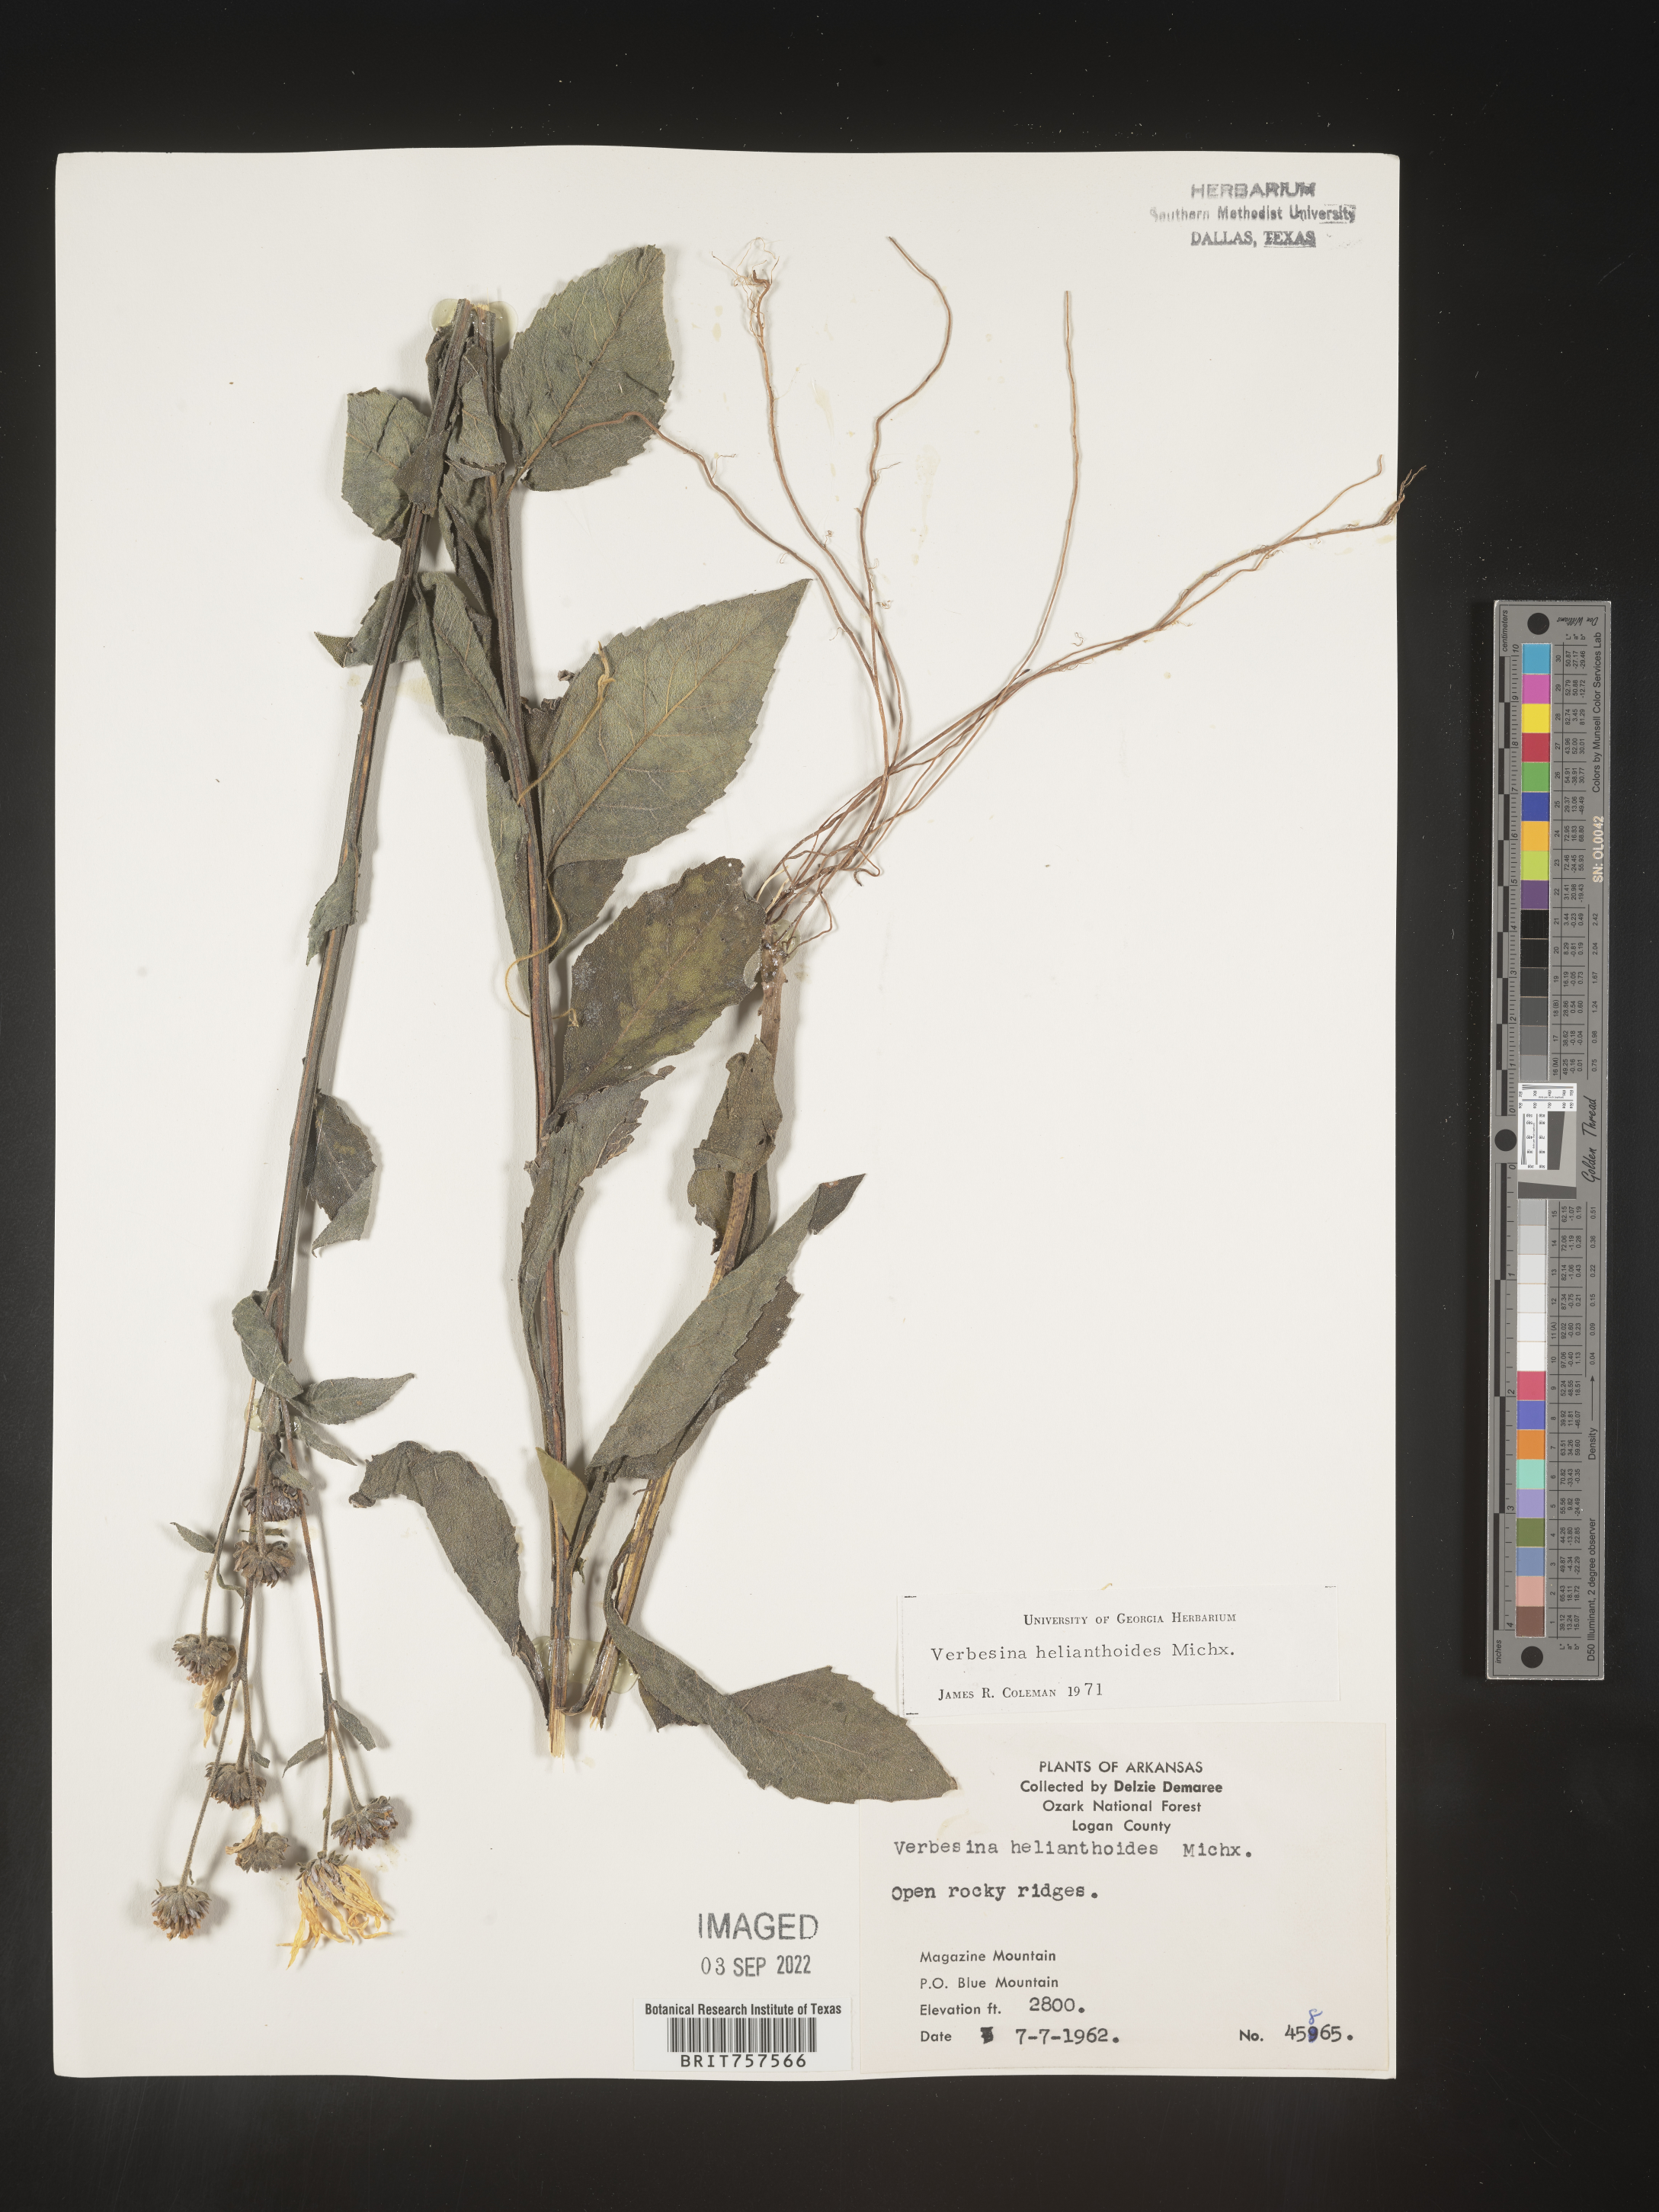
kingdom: Plantae
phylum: Tracheophyta
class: Magnoliopsida
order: Asterales
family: Asteraceae
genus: Verbesina
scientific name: Verbesina helianthoides
